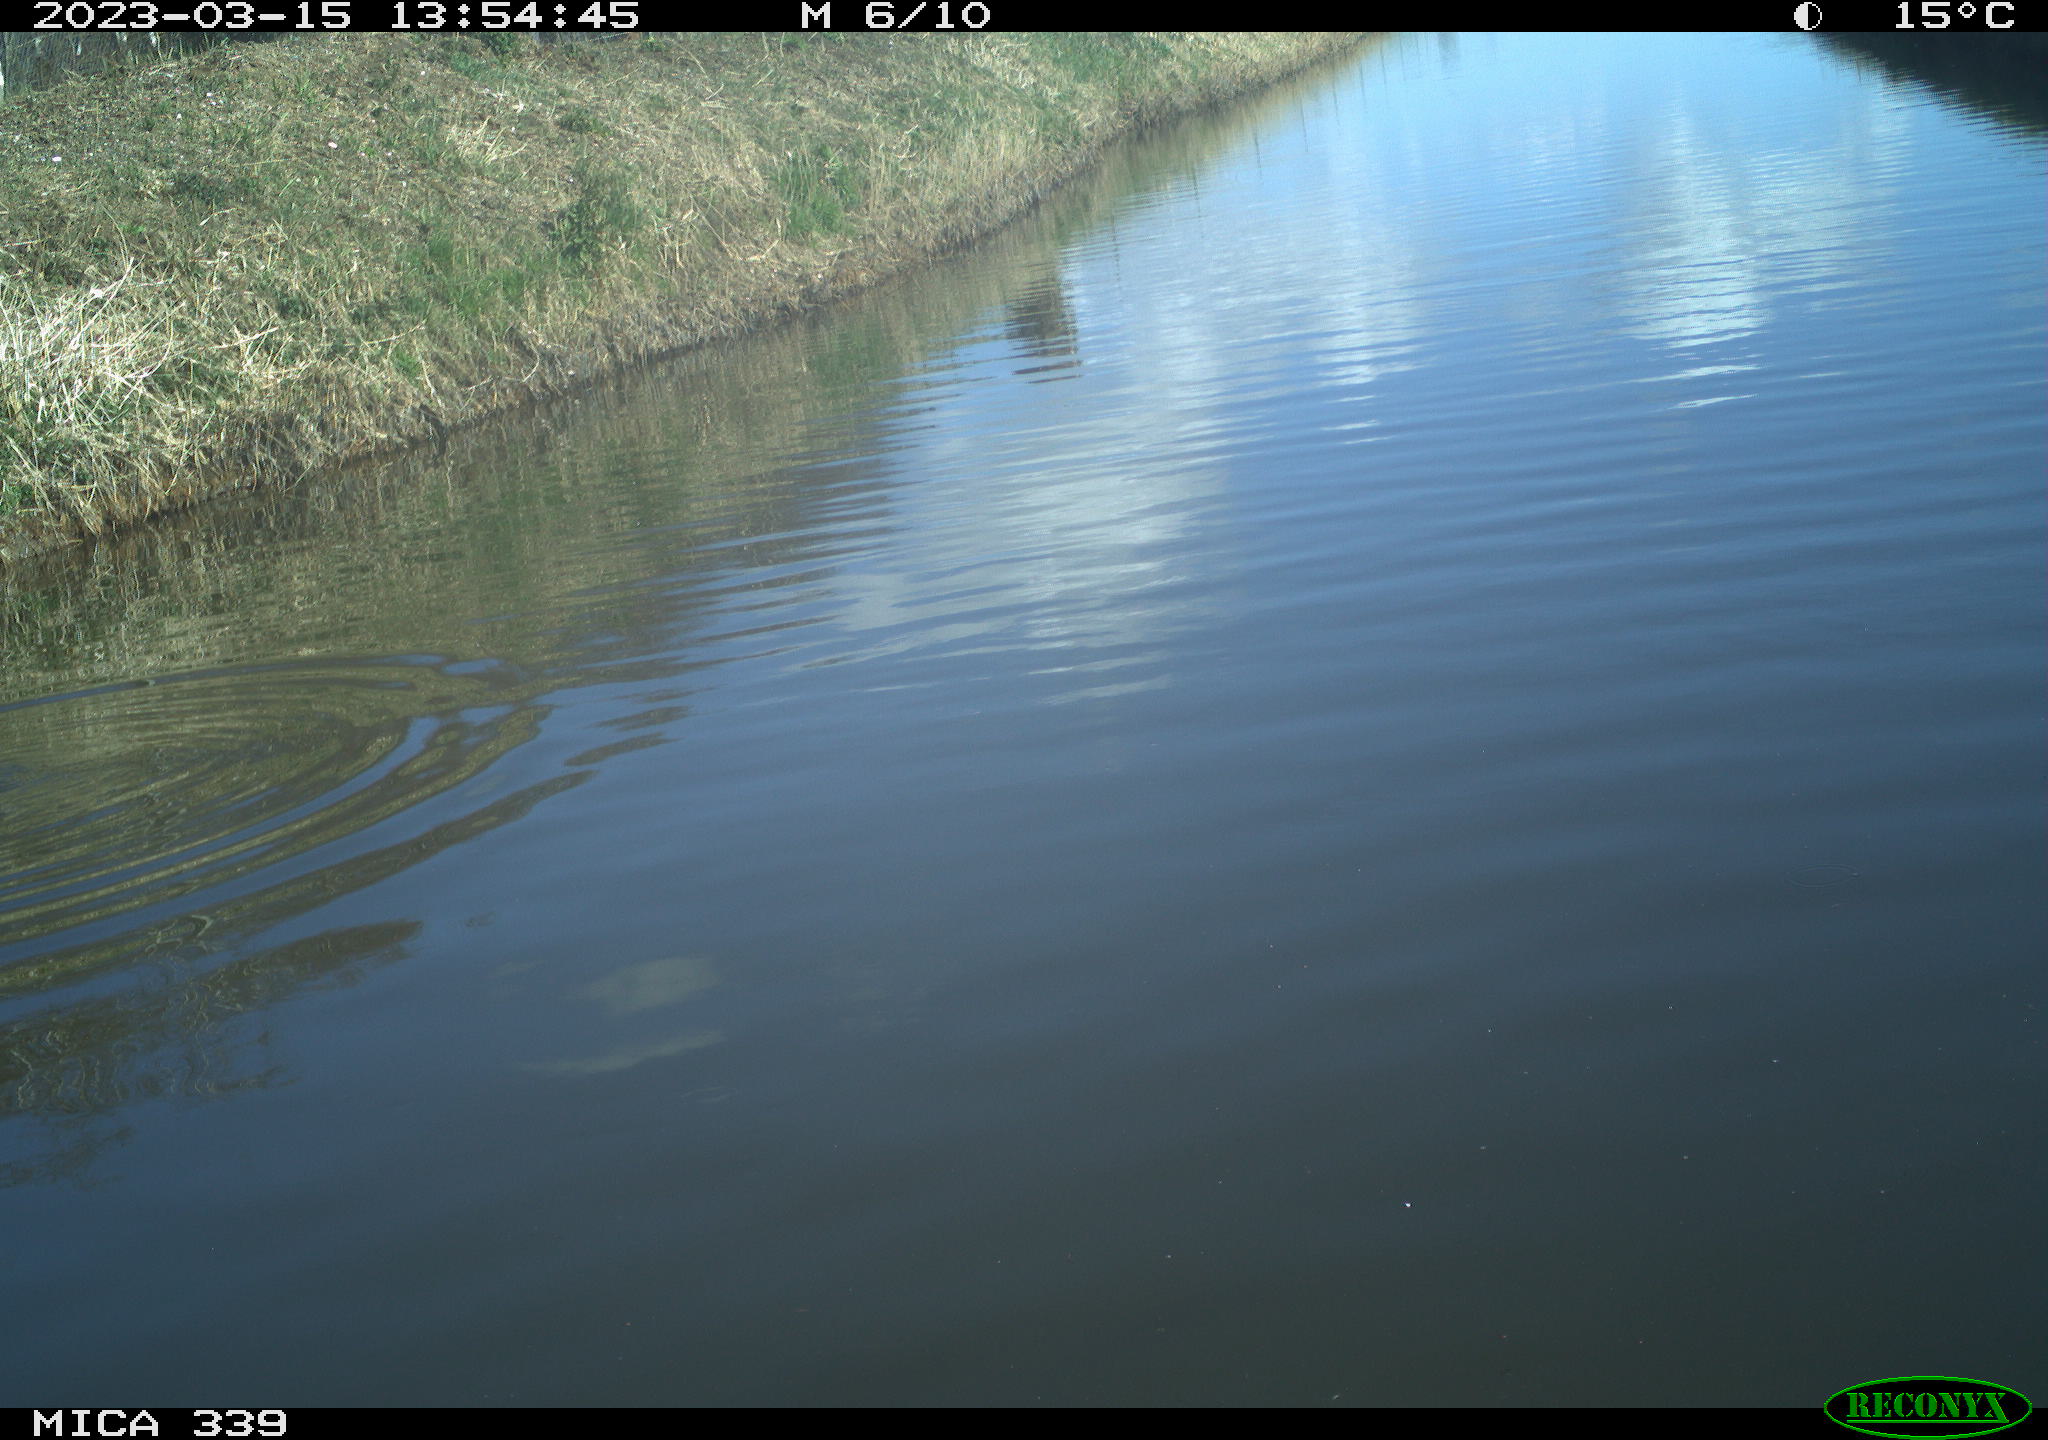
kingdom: Animalia
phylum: Chordata
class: Aves
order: Gruiformes
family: Rallidae
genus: Fulica
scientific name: Fulica atra
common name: Eurasian coot
